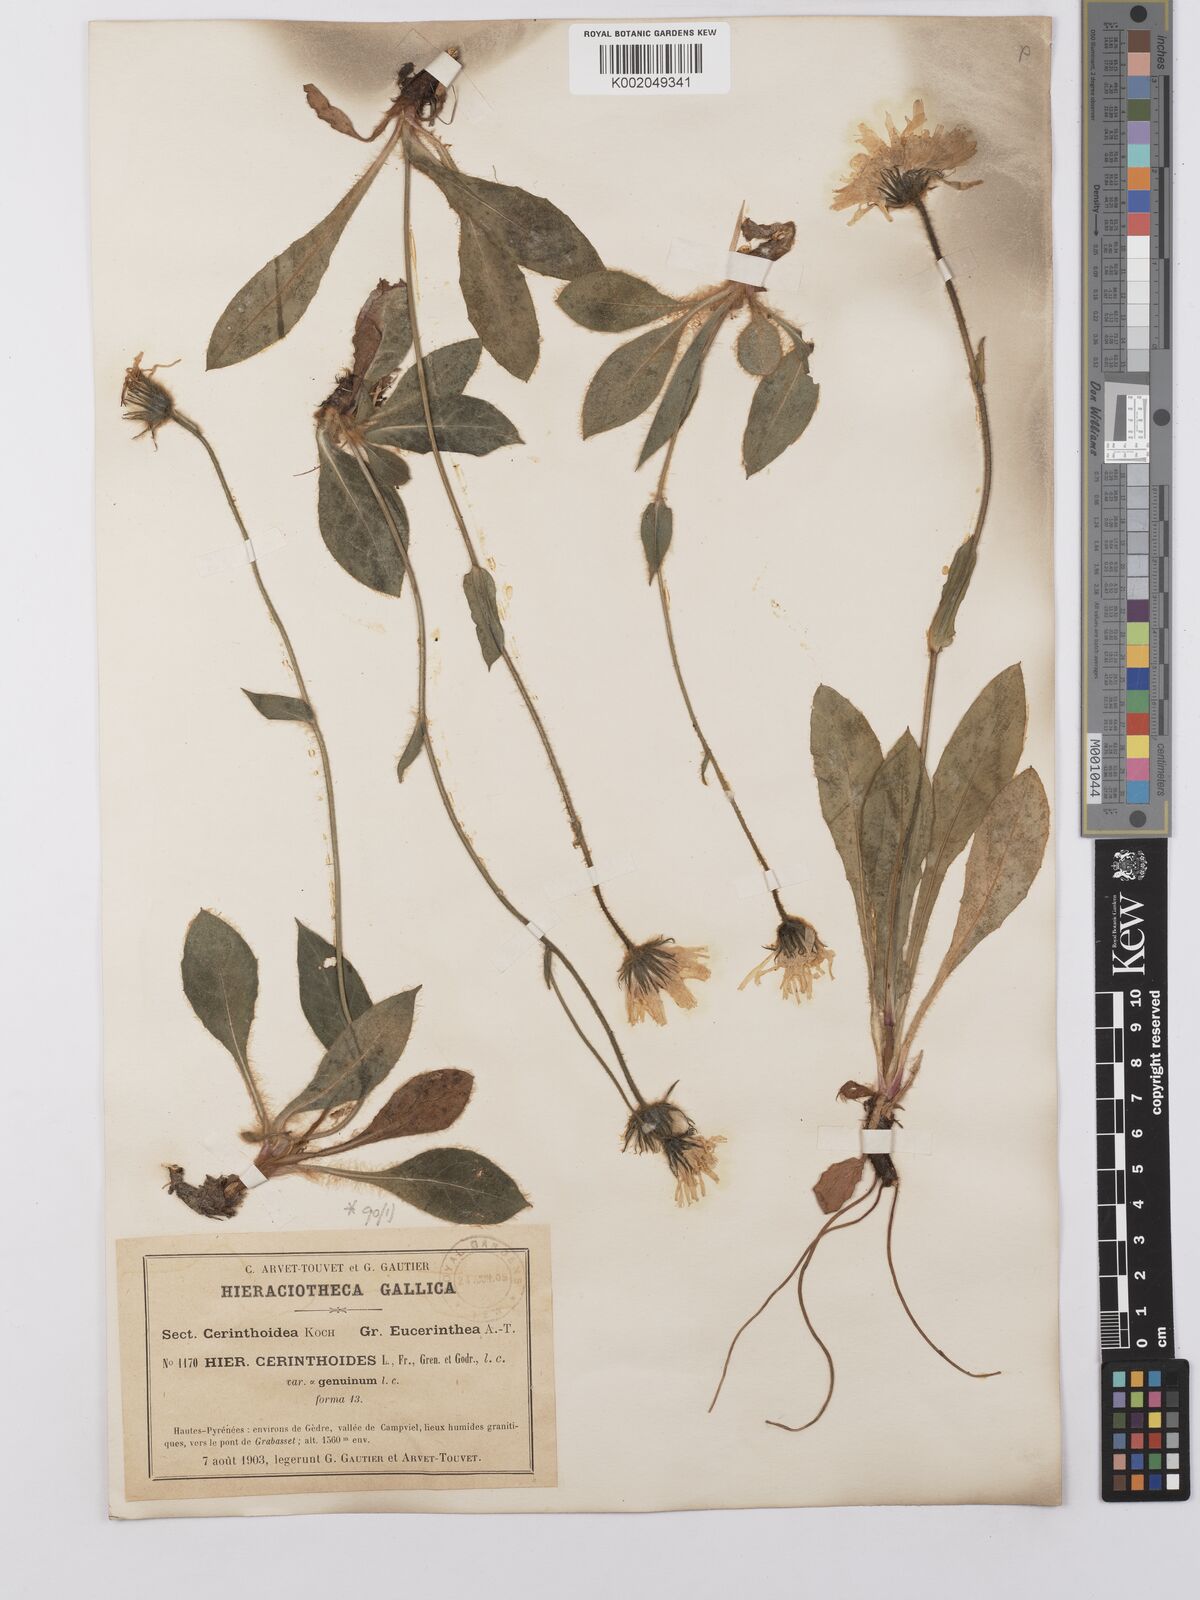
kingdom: Plantae
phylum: Tracheophyta
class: Magnoliopsida
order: Asterales
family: Asteraceae
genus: Hieracium
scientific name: Hieracium cerinthoides
